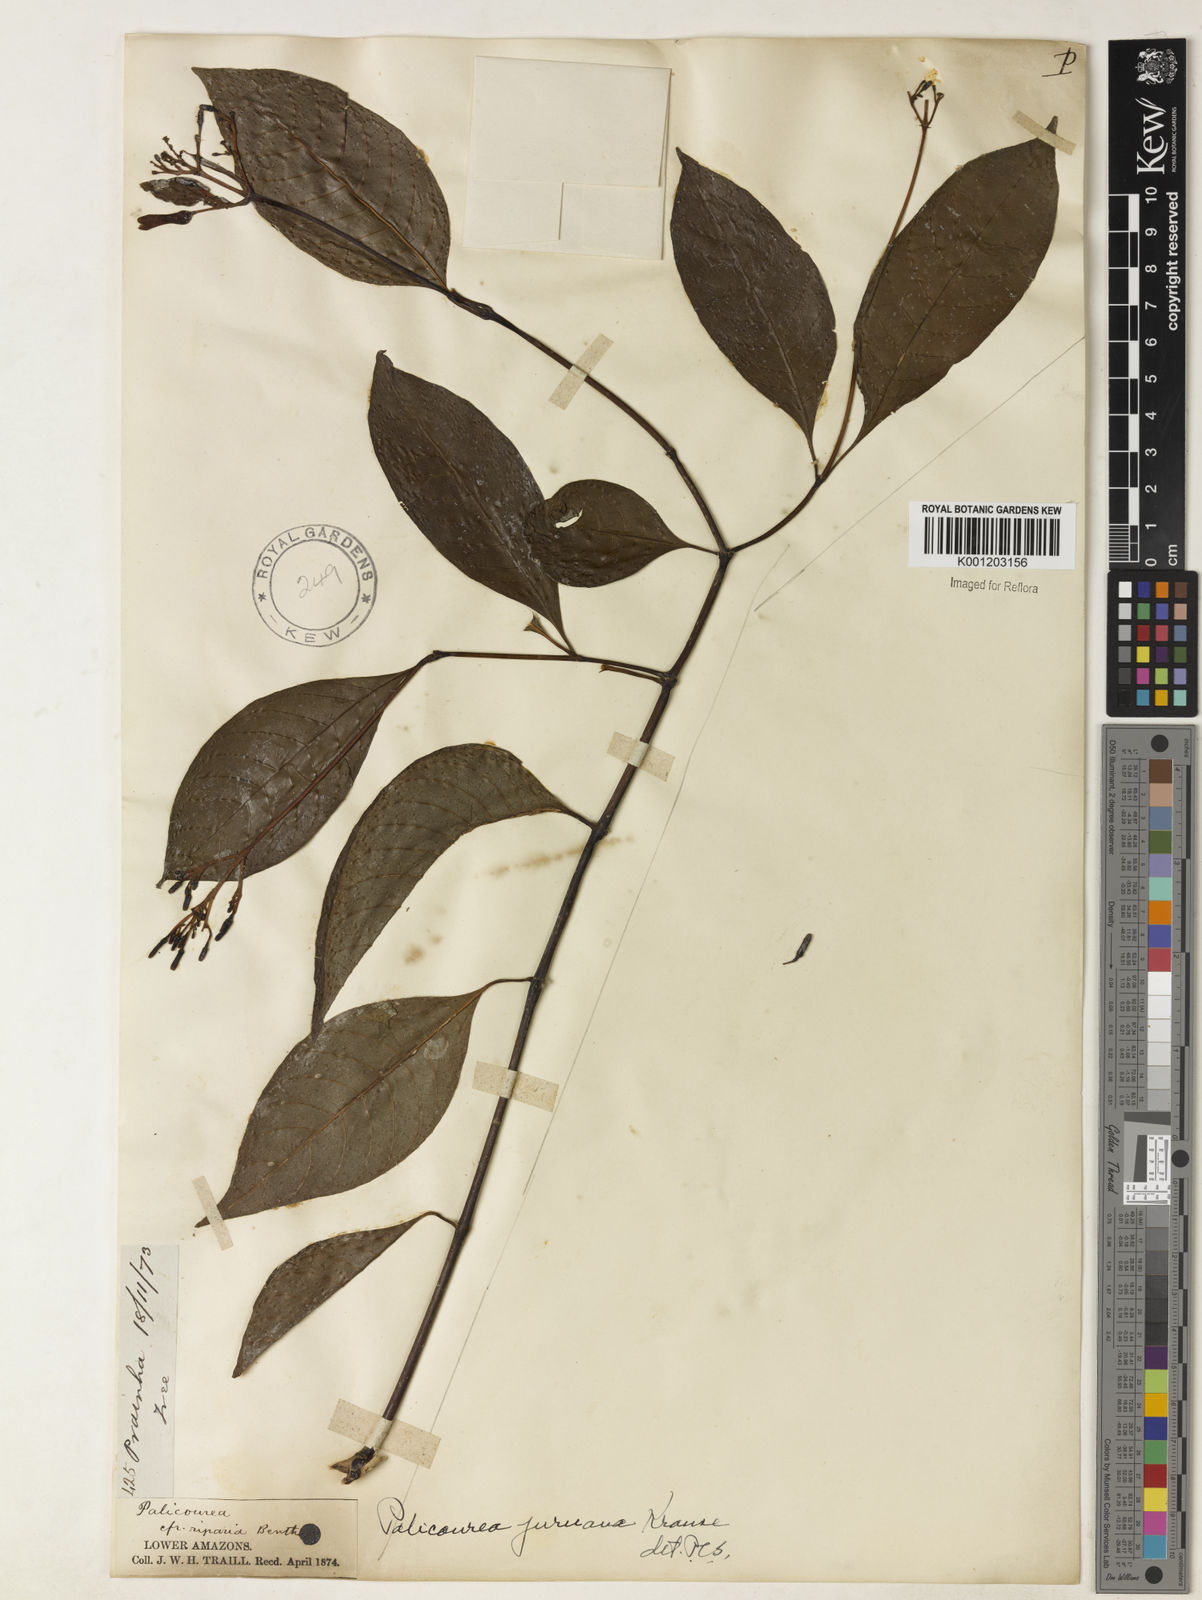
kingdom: Plantae
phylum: Tracheophyta
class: Magnoliopsida
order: Gentianales
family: Rubiaceae
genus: Palicourea
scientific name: Palicourea juruana
